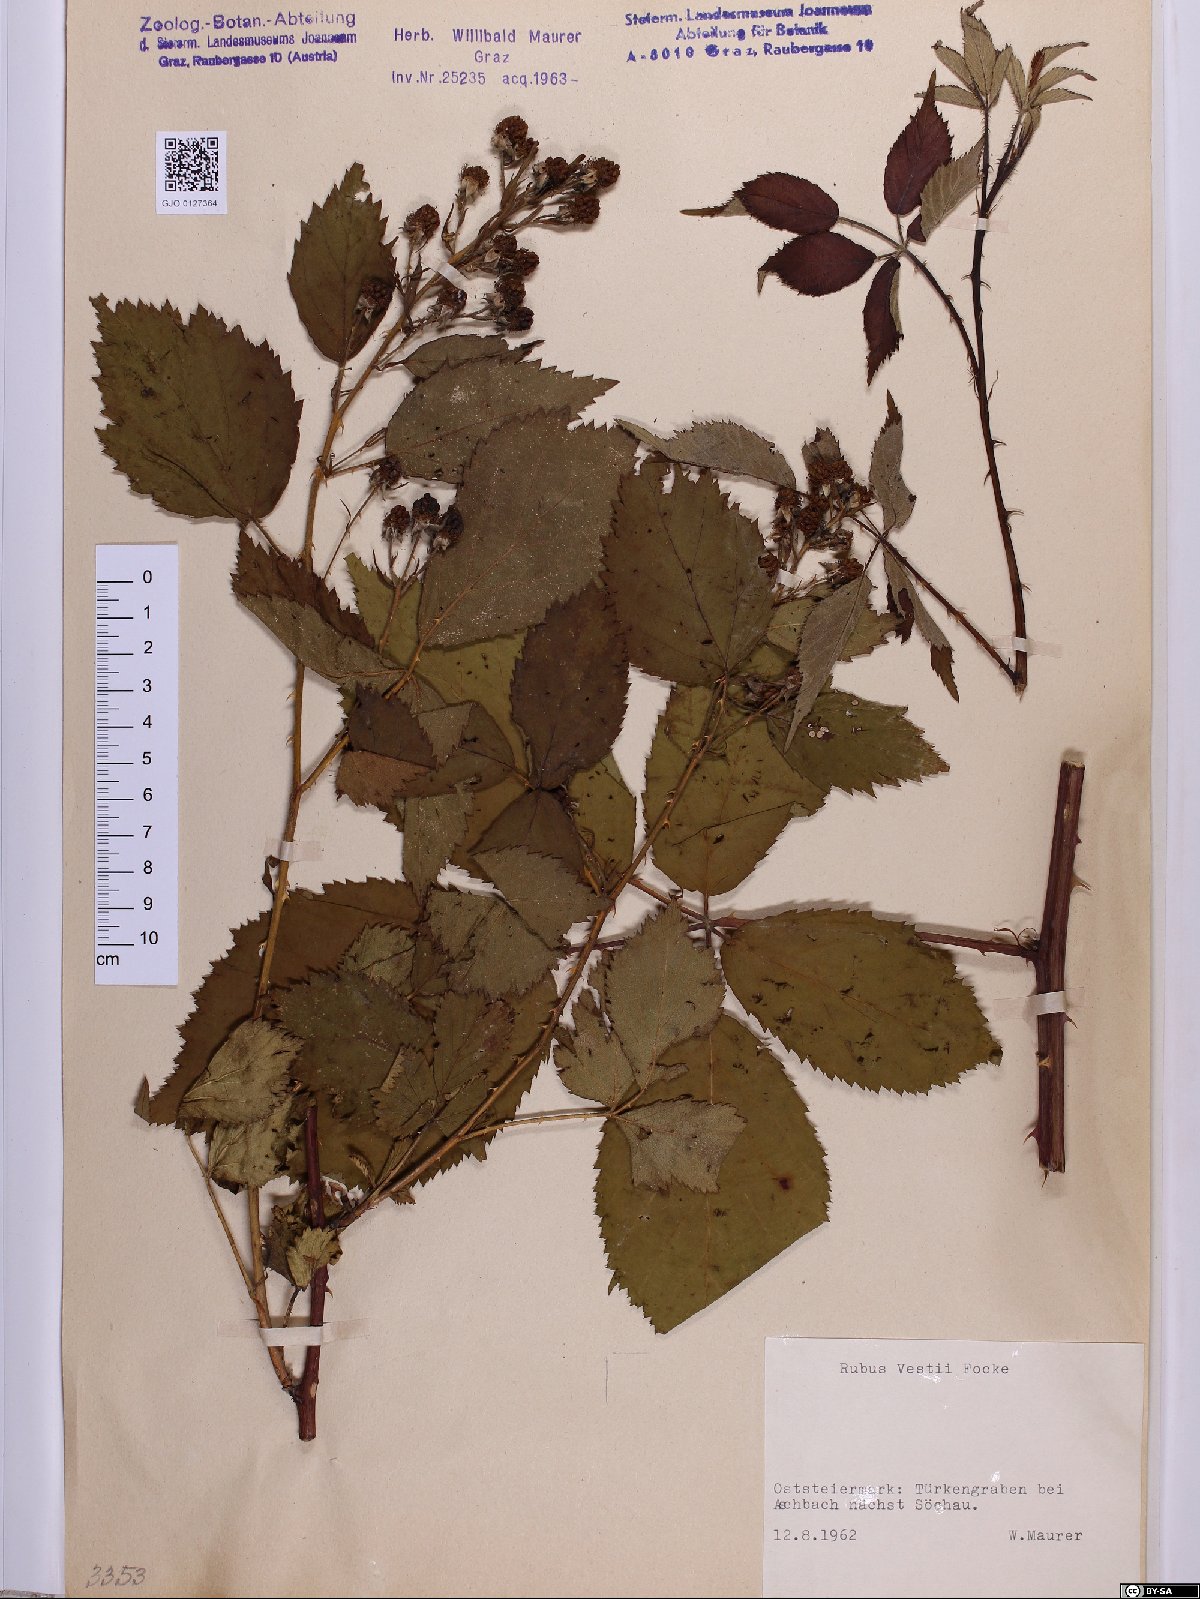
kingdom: Plantae
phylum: Tracheophyta
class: Magnoliopsida
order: Rosales
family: Rosaceae
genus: Rubus
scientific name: Rubus constrictus
